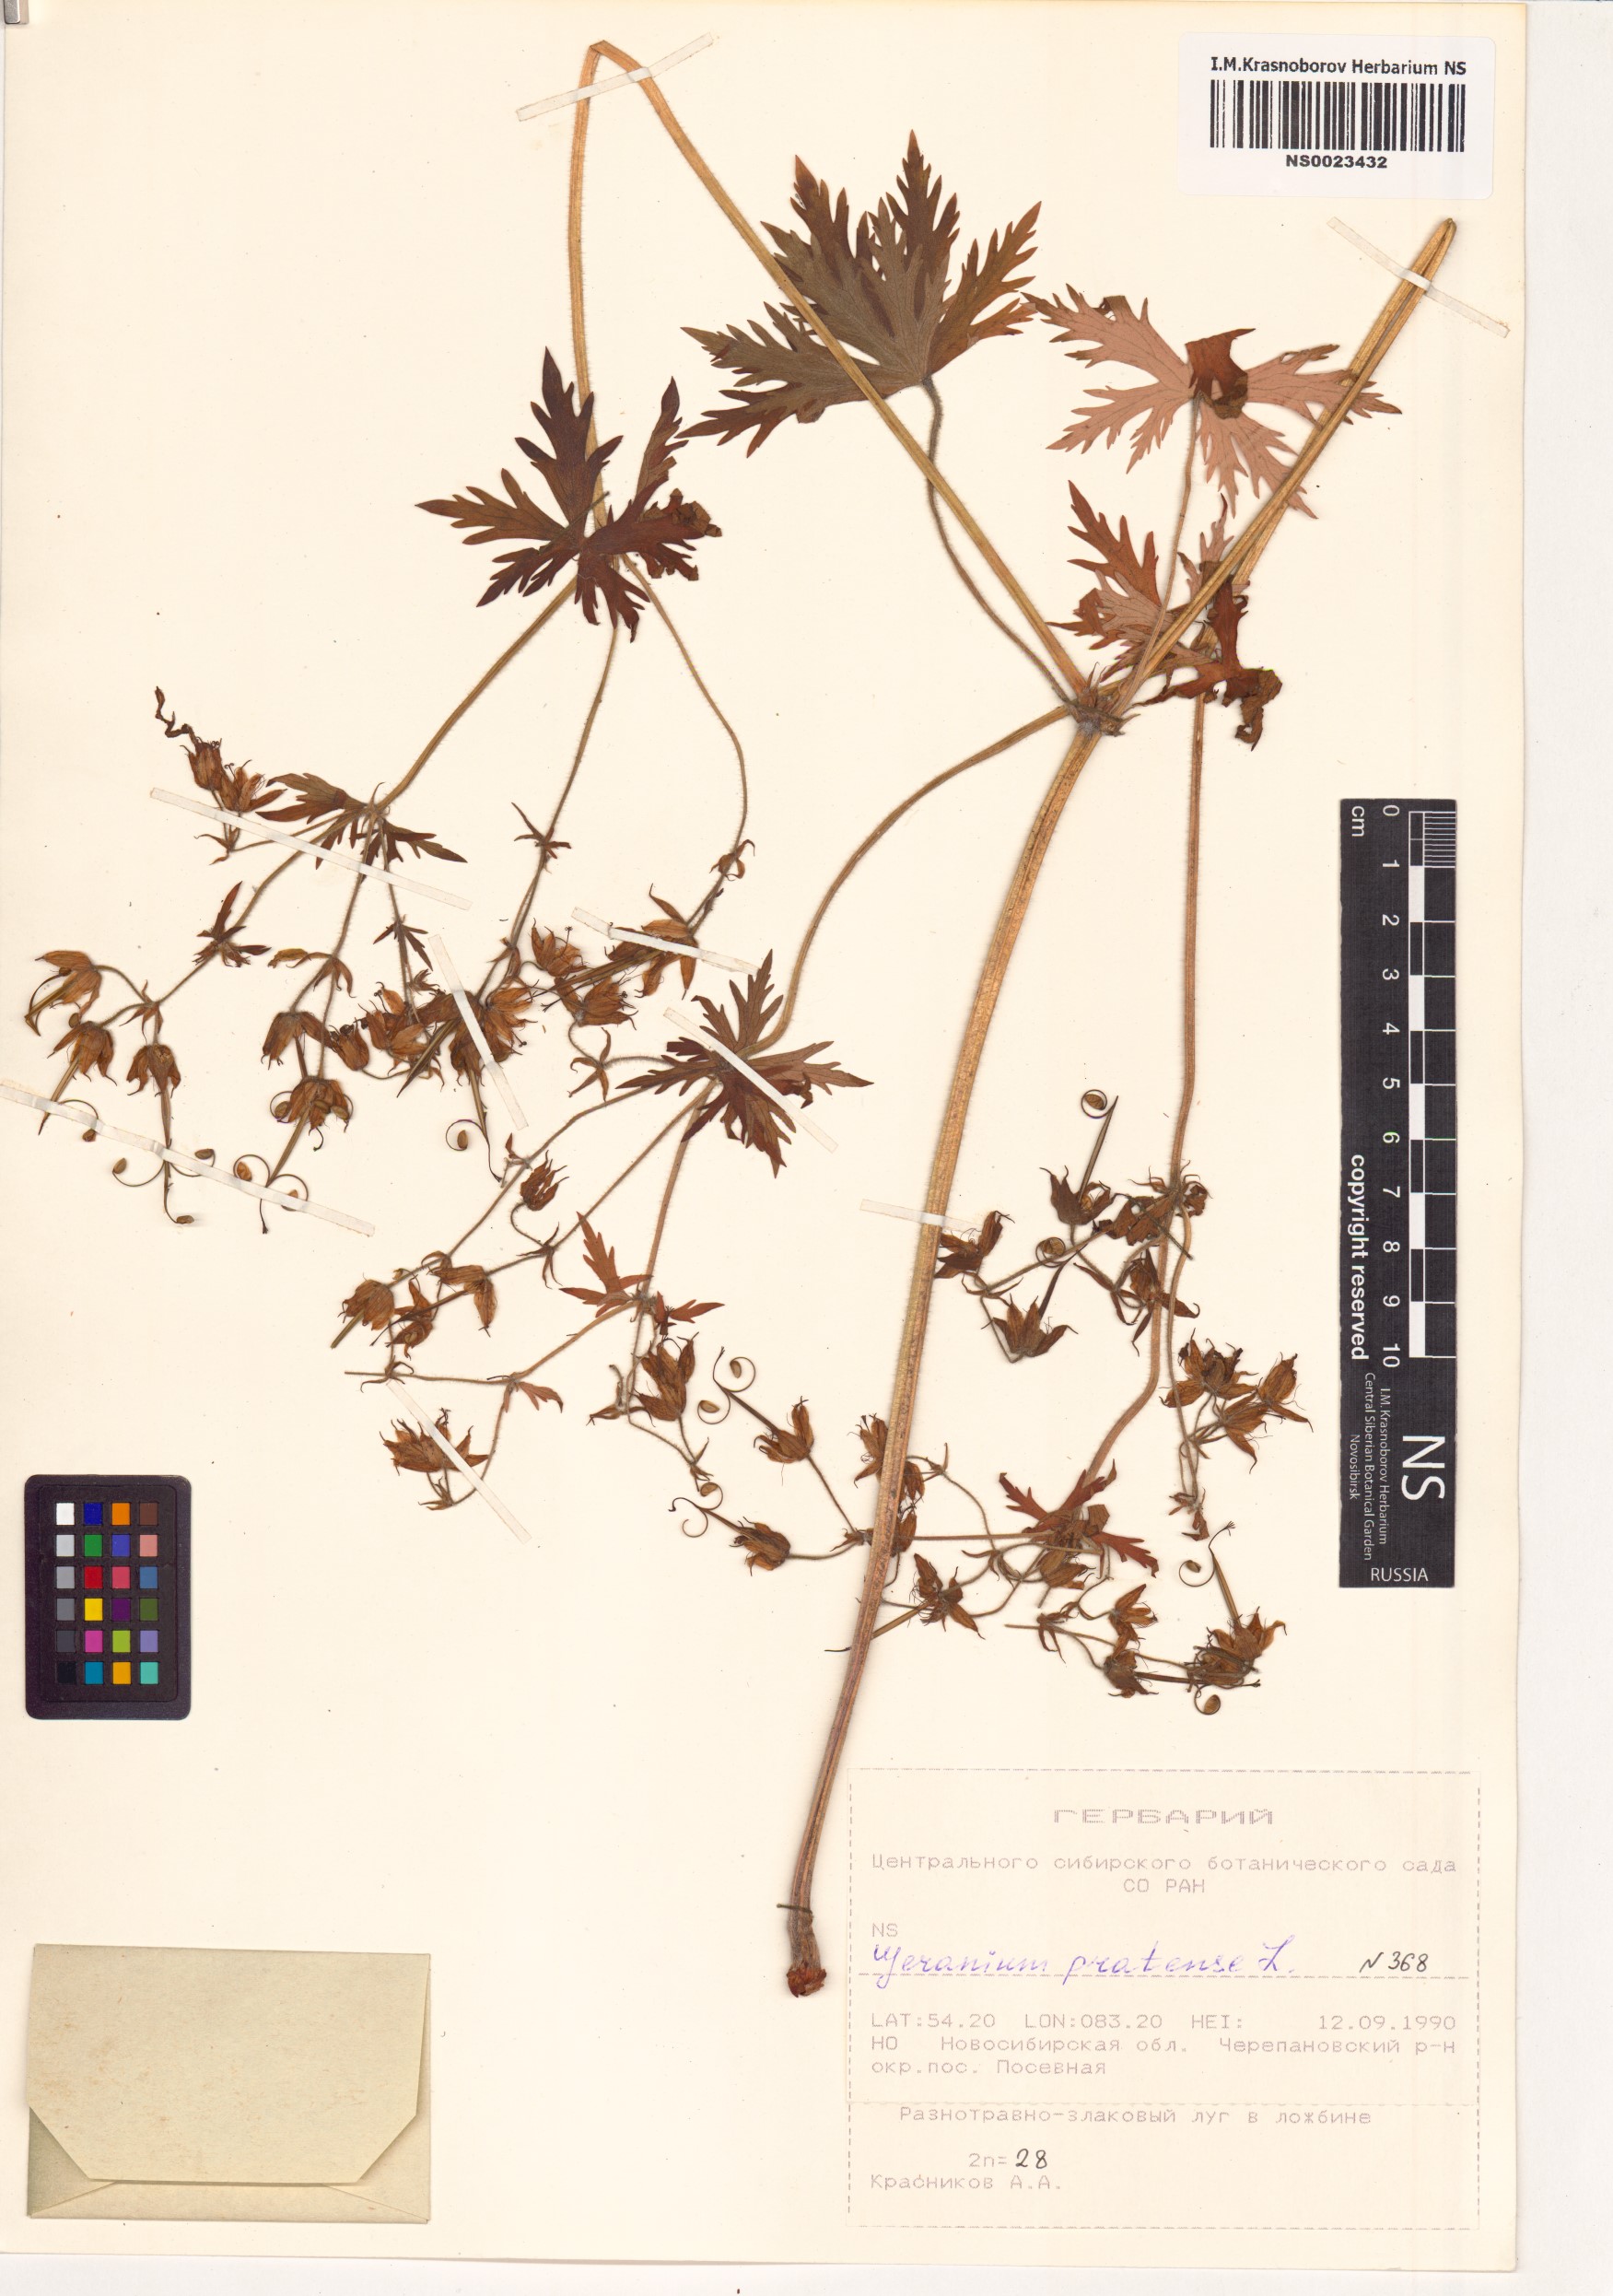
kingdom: Plantae
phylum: Tracheophyta
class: Magnoliopsida
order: Geraniales
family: Geraniaceae
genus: Geranium
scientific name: Geranium pratense
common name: Meadow crane's-bill
